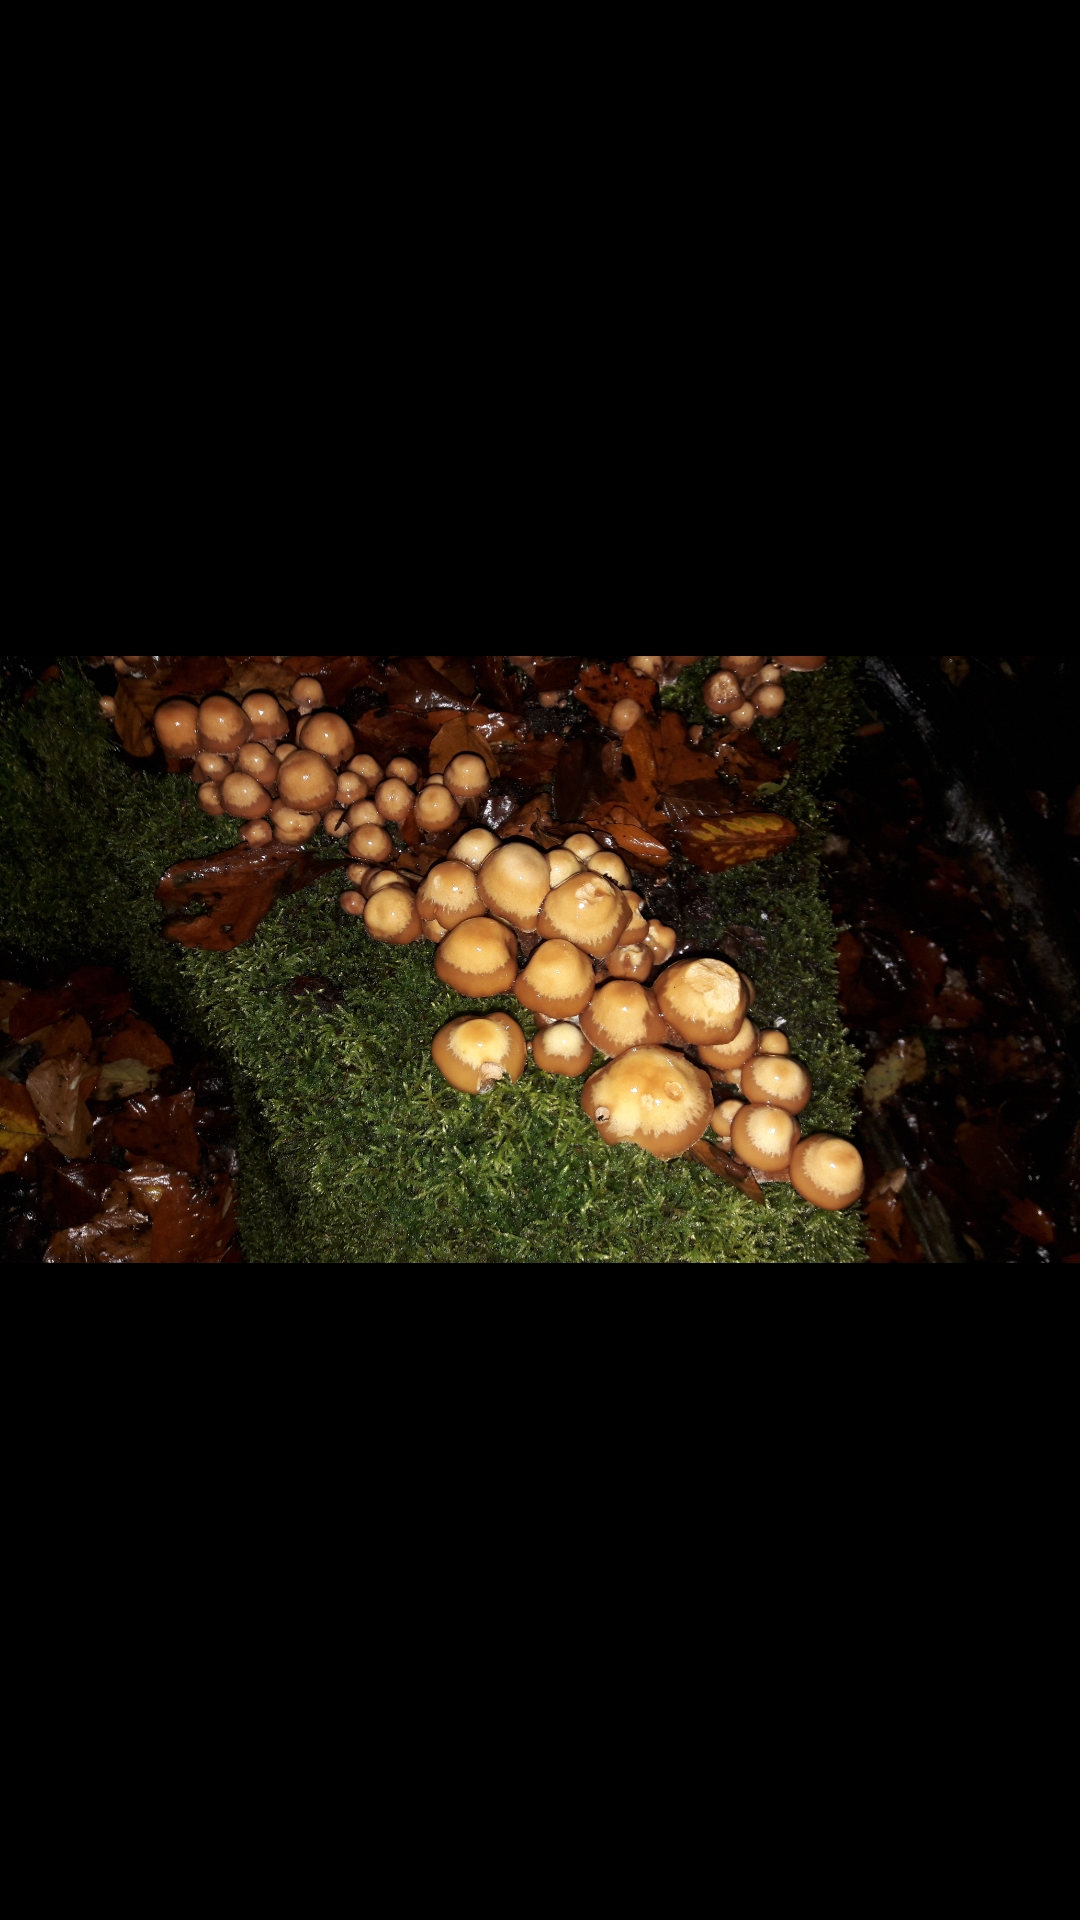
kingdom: Fungi
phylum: Basidiomycota
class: Agaricomycetes
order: Agaricales
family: Strophariaceae
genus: Kuehneromyces
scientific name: Kuehneromyces mutabilis
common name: foranderlig skælhat
